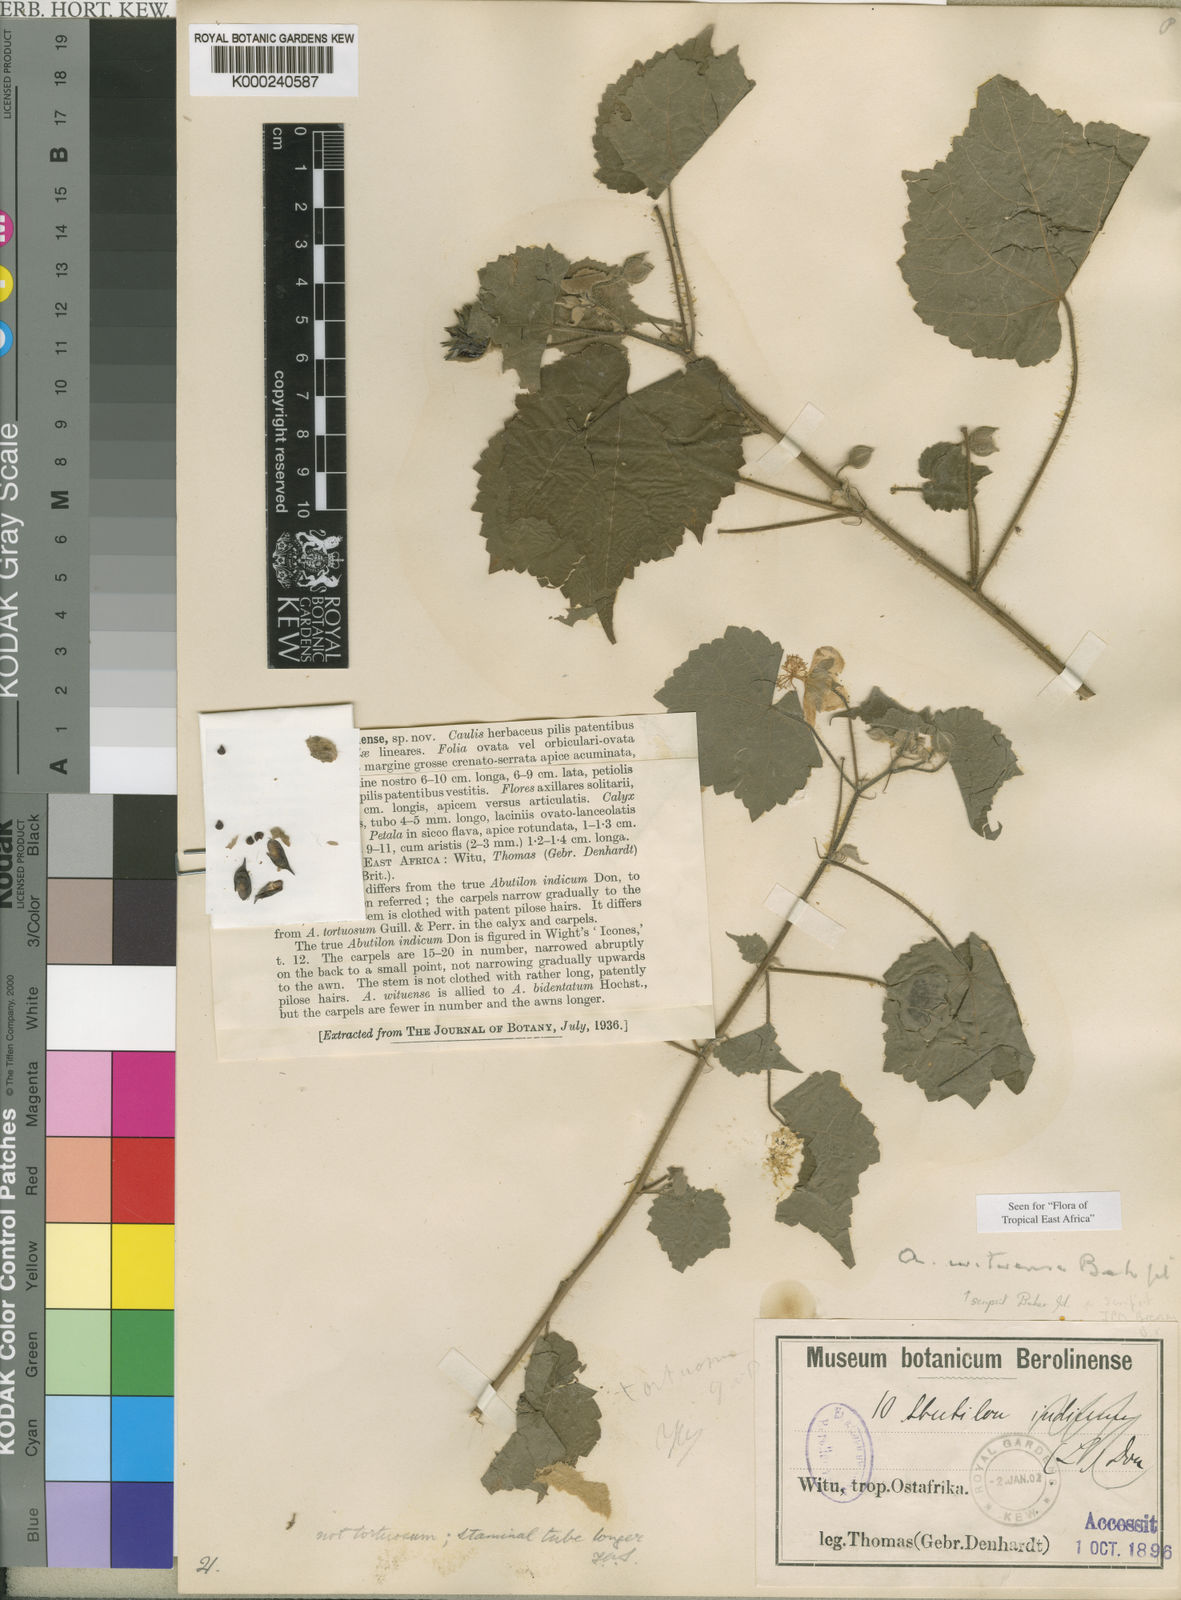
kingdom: Plantae
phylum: Tracheophyta
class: Magnoliopsida
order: Malvales
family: Malvaceae
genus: Pavonia
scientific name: Pavonia procumbens
